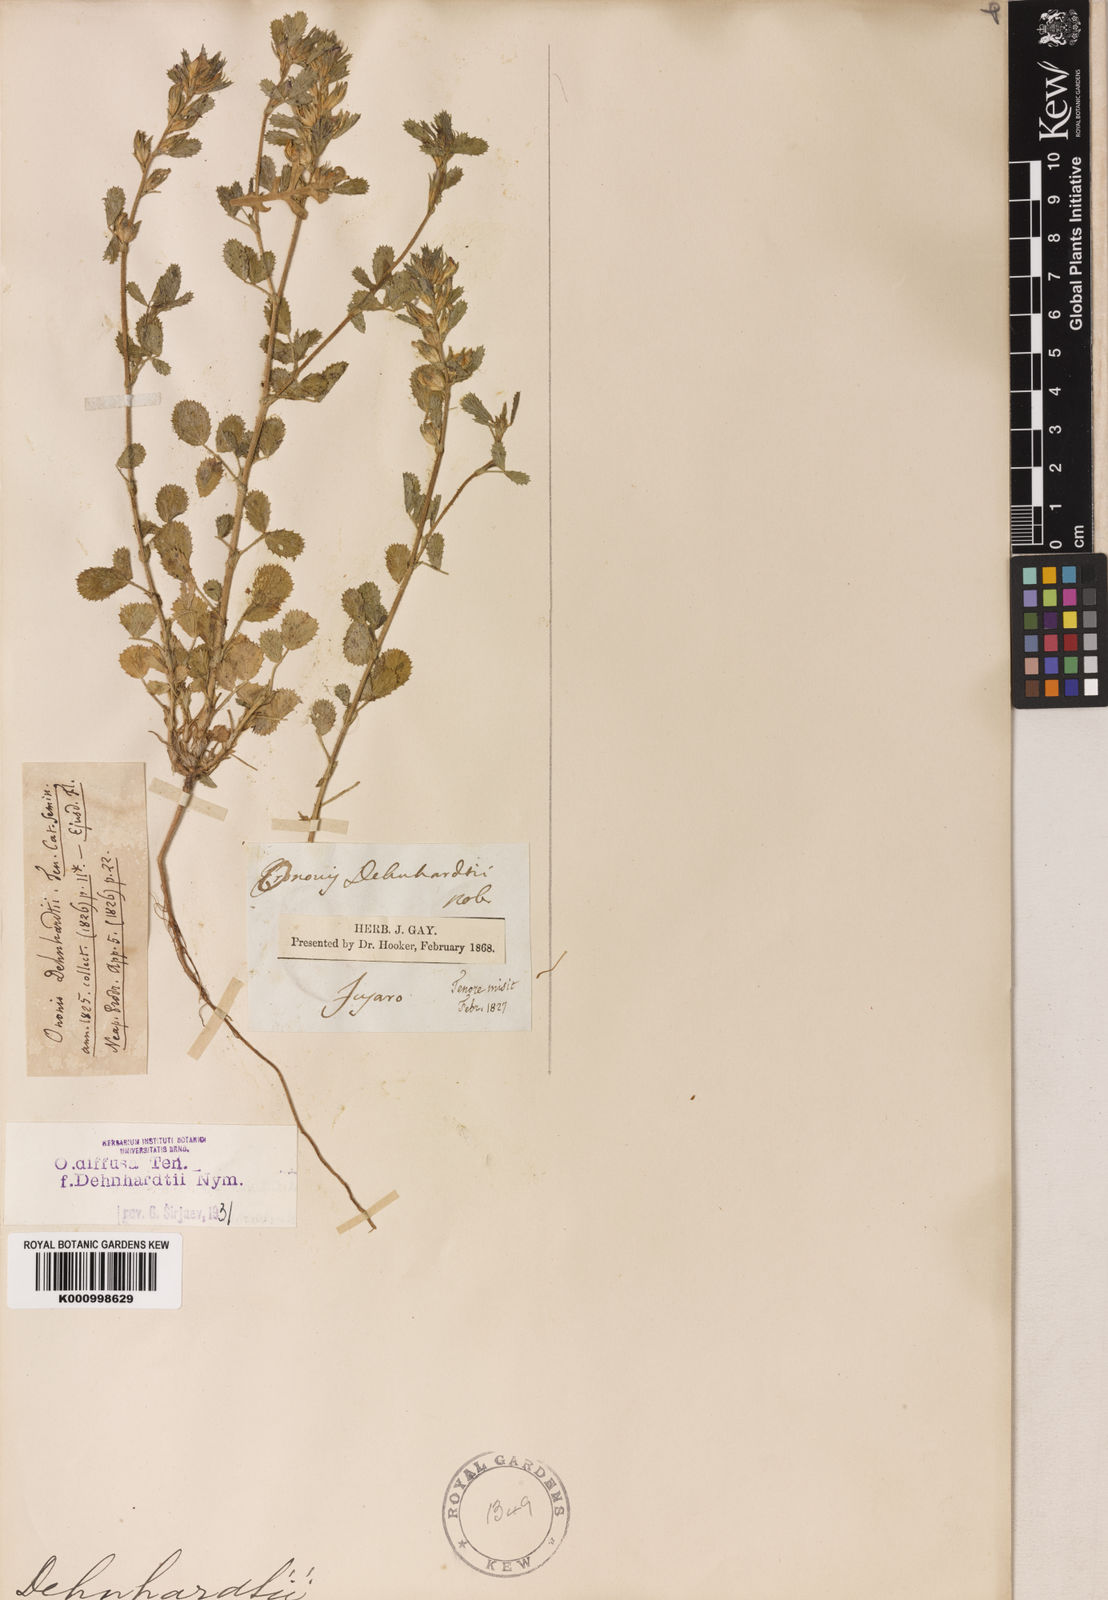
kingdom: Plantae
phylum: Tracheophyta
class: Magnoliopsida
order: Fabales
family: Fabaceae
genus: Ononis
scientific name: Ononis diffusa
